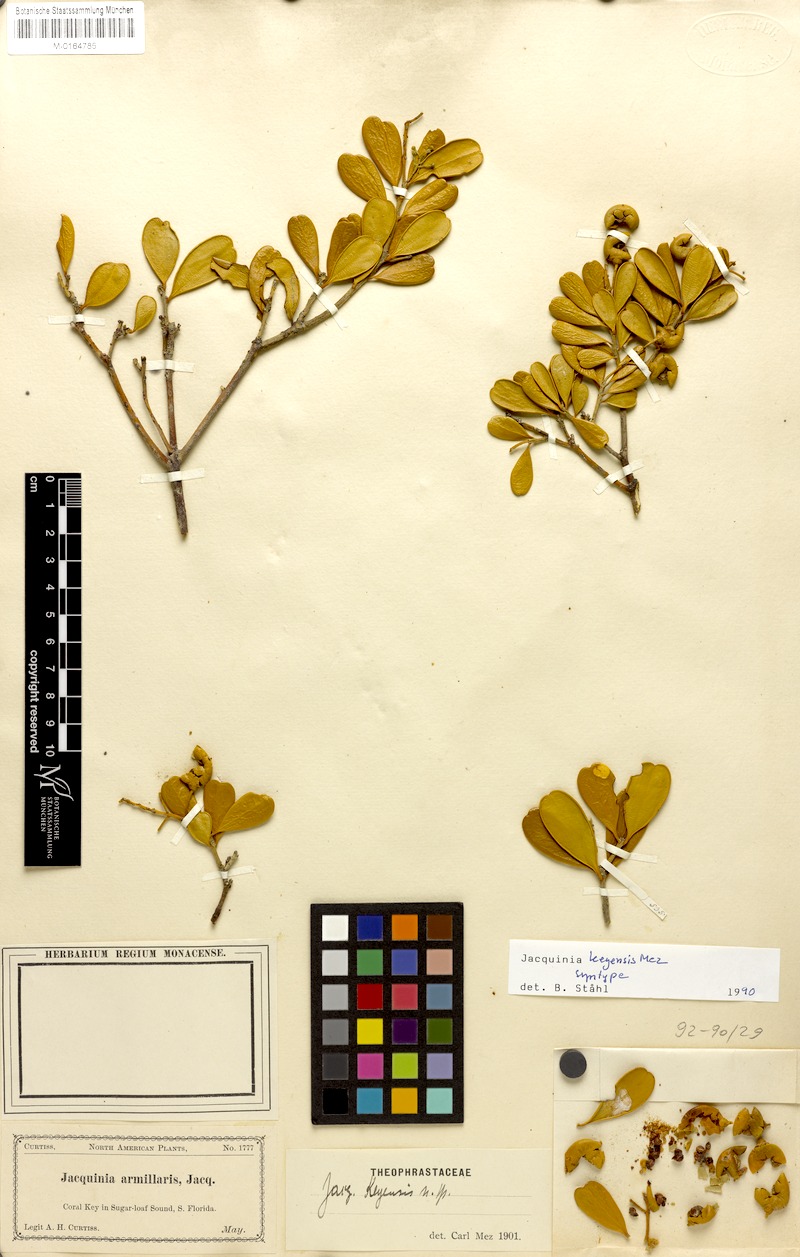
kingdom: Plantae
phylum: Tracheophyta
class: Magnoliopsida
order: Ericales
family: Primulaceae
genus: Jacquinia
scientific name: Jacquinia keyensis
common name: Joebush
